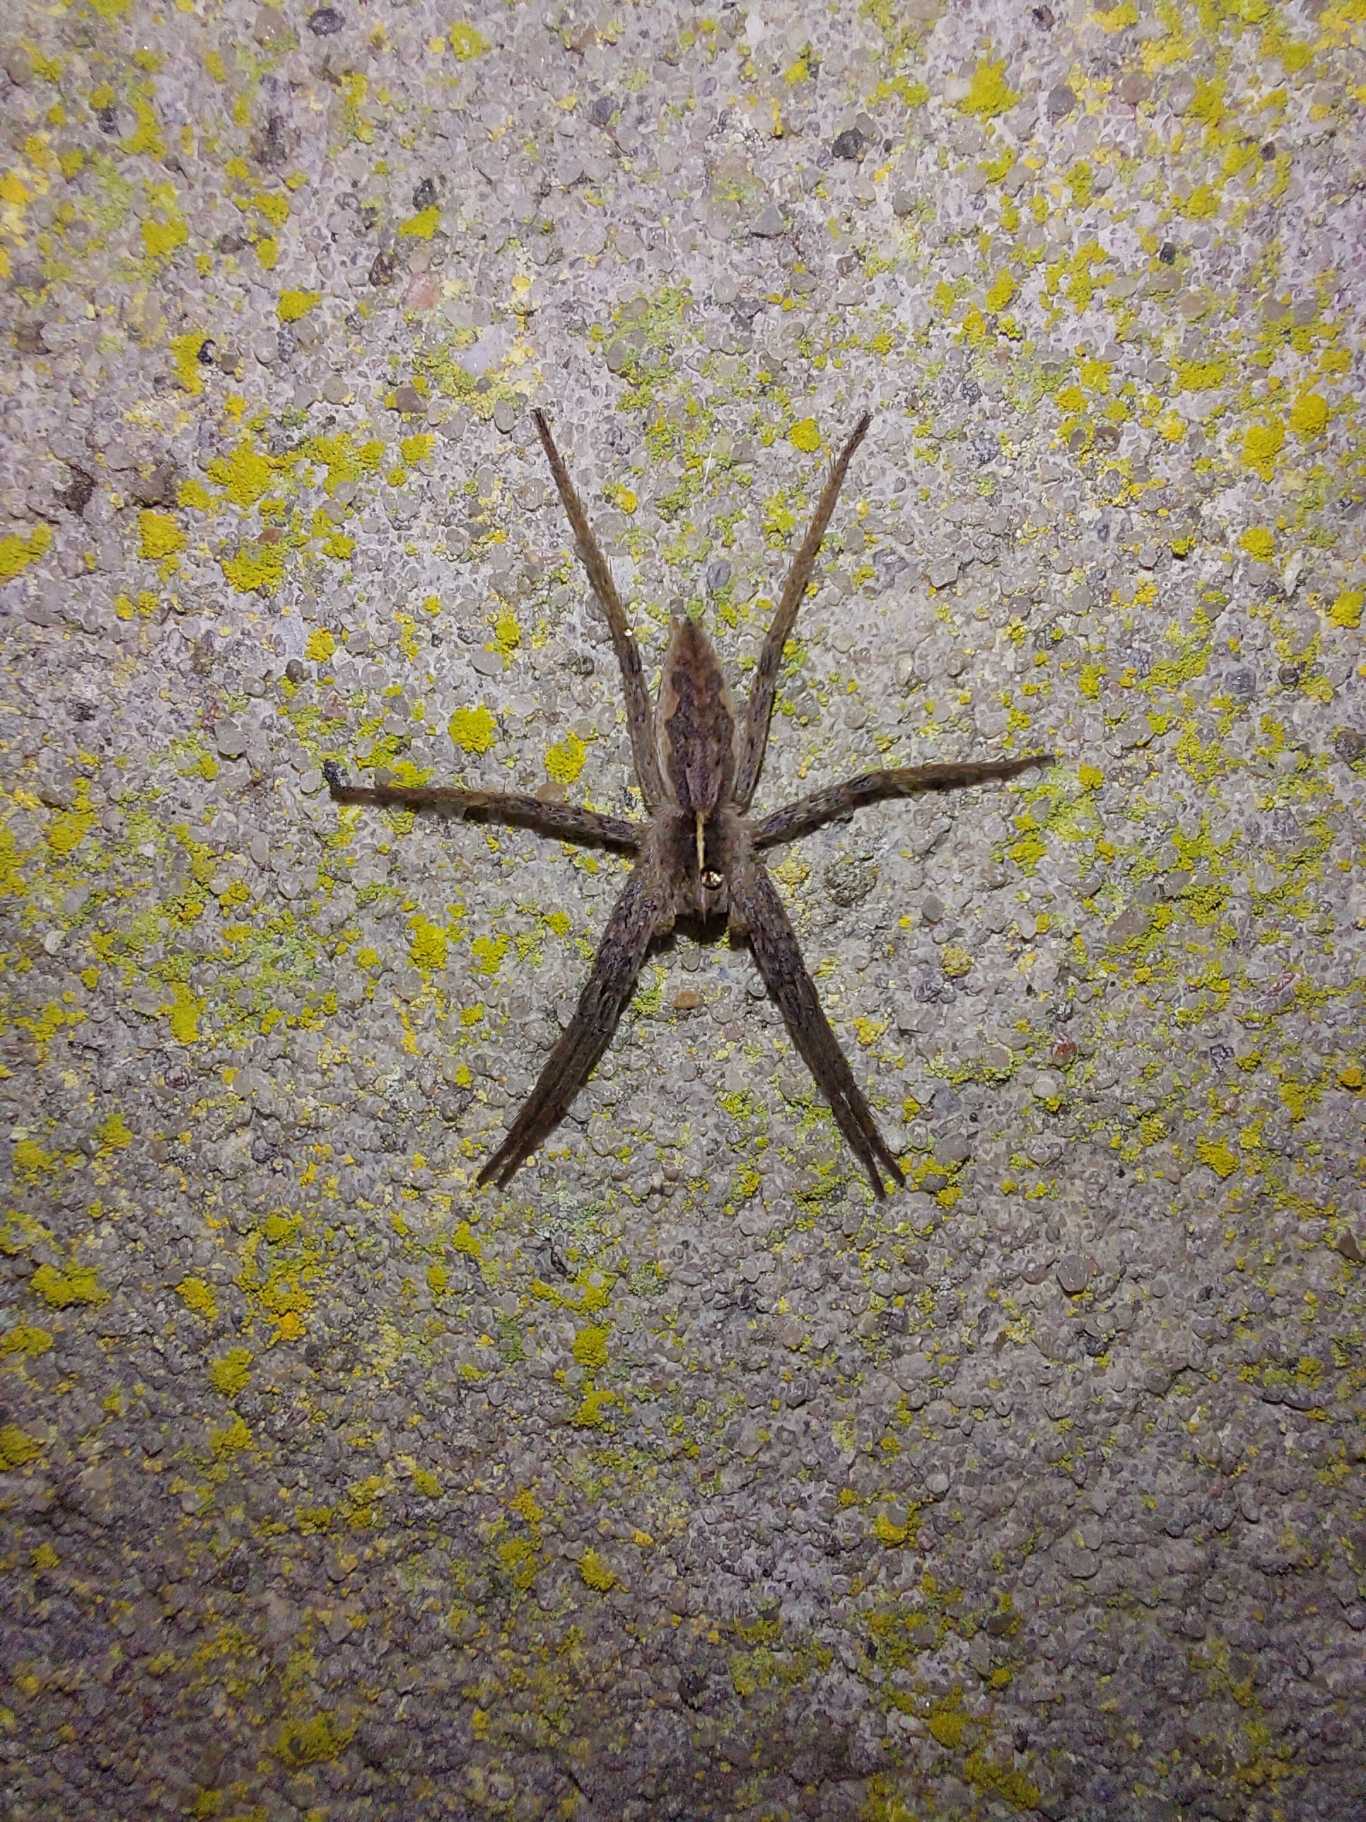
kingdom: Animalia
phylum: Arthropoda
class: Arachnida
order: Araneae
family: Pisauridae
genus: Pisaura
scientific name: Pisaura mirabilis
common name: Almindelig rovedderkop
